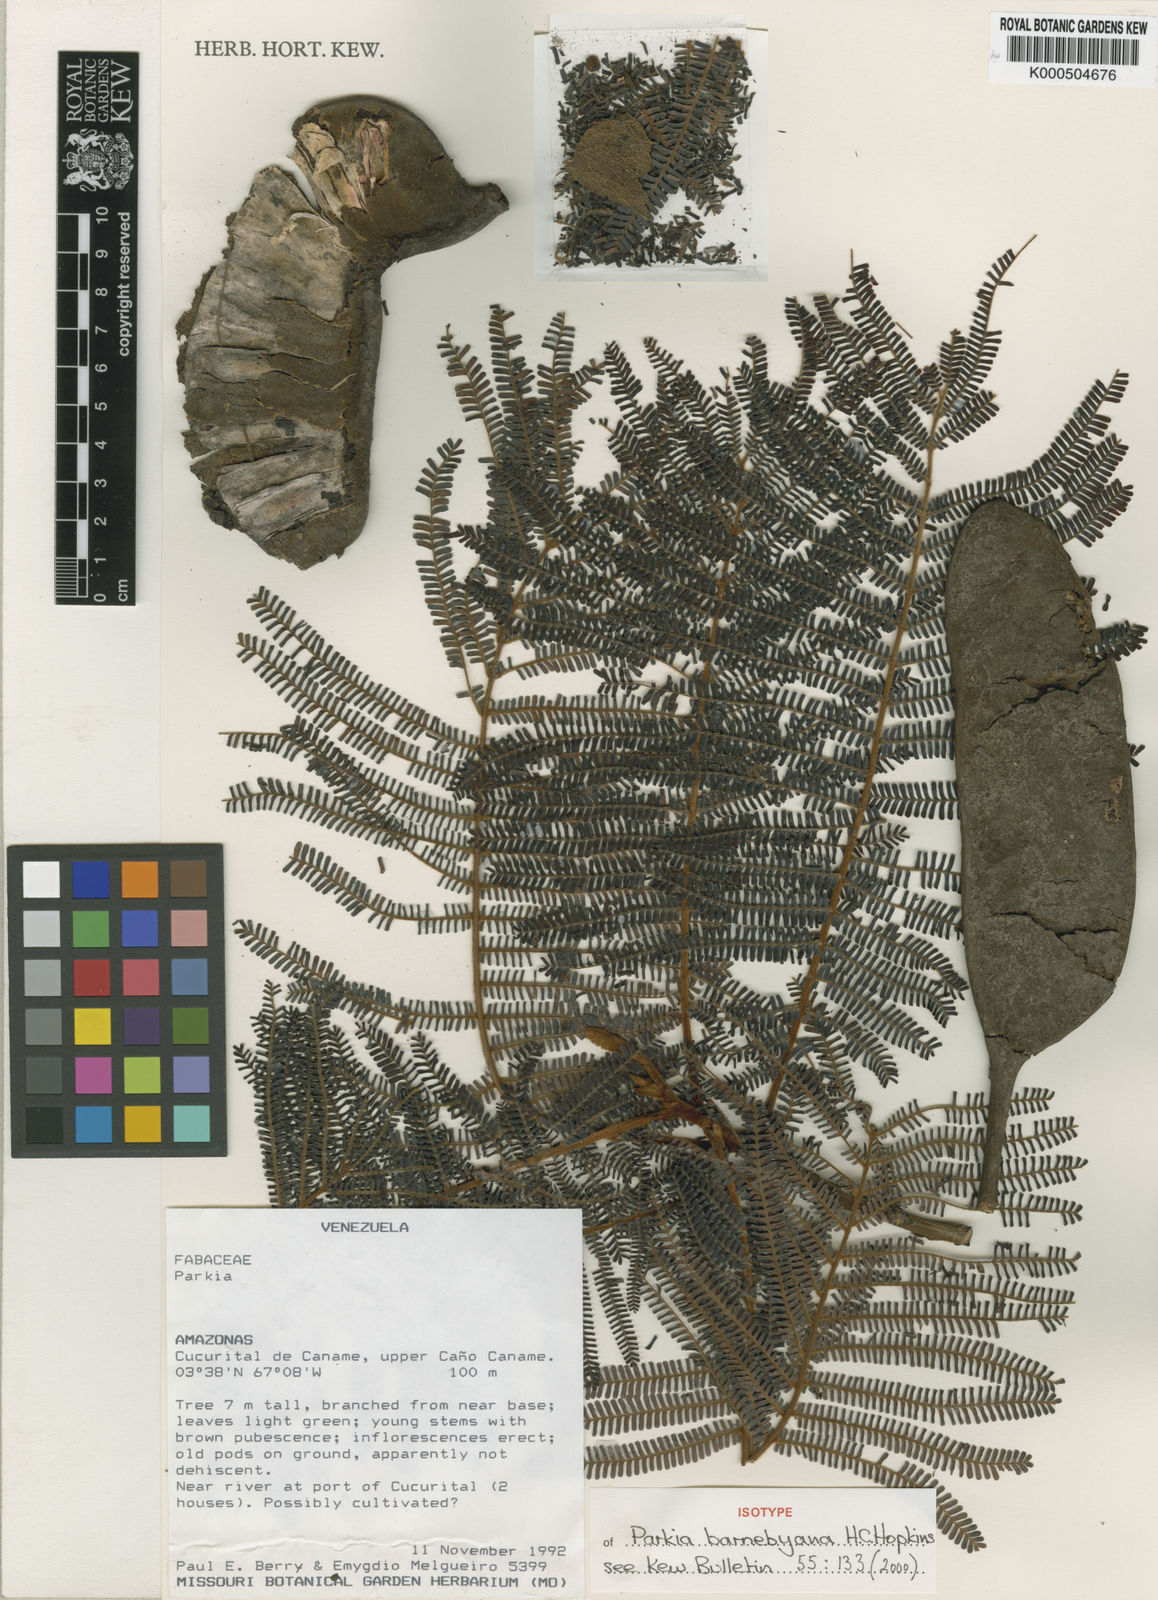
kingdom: Plantae
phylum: Tracheophyta
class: Magnoliopsida
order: Fabales
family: Fabaceae
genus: Parkia
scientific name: Parkia barnebyana
